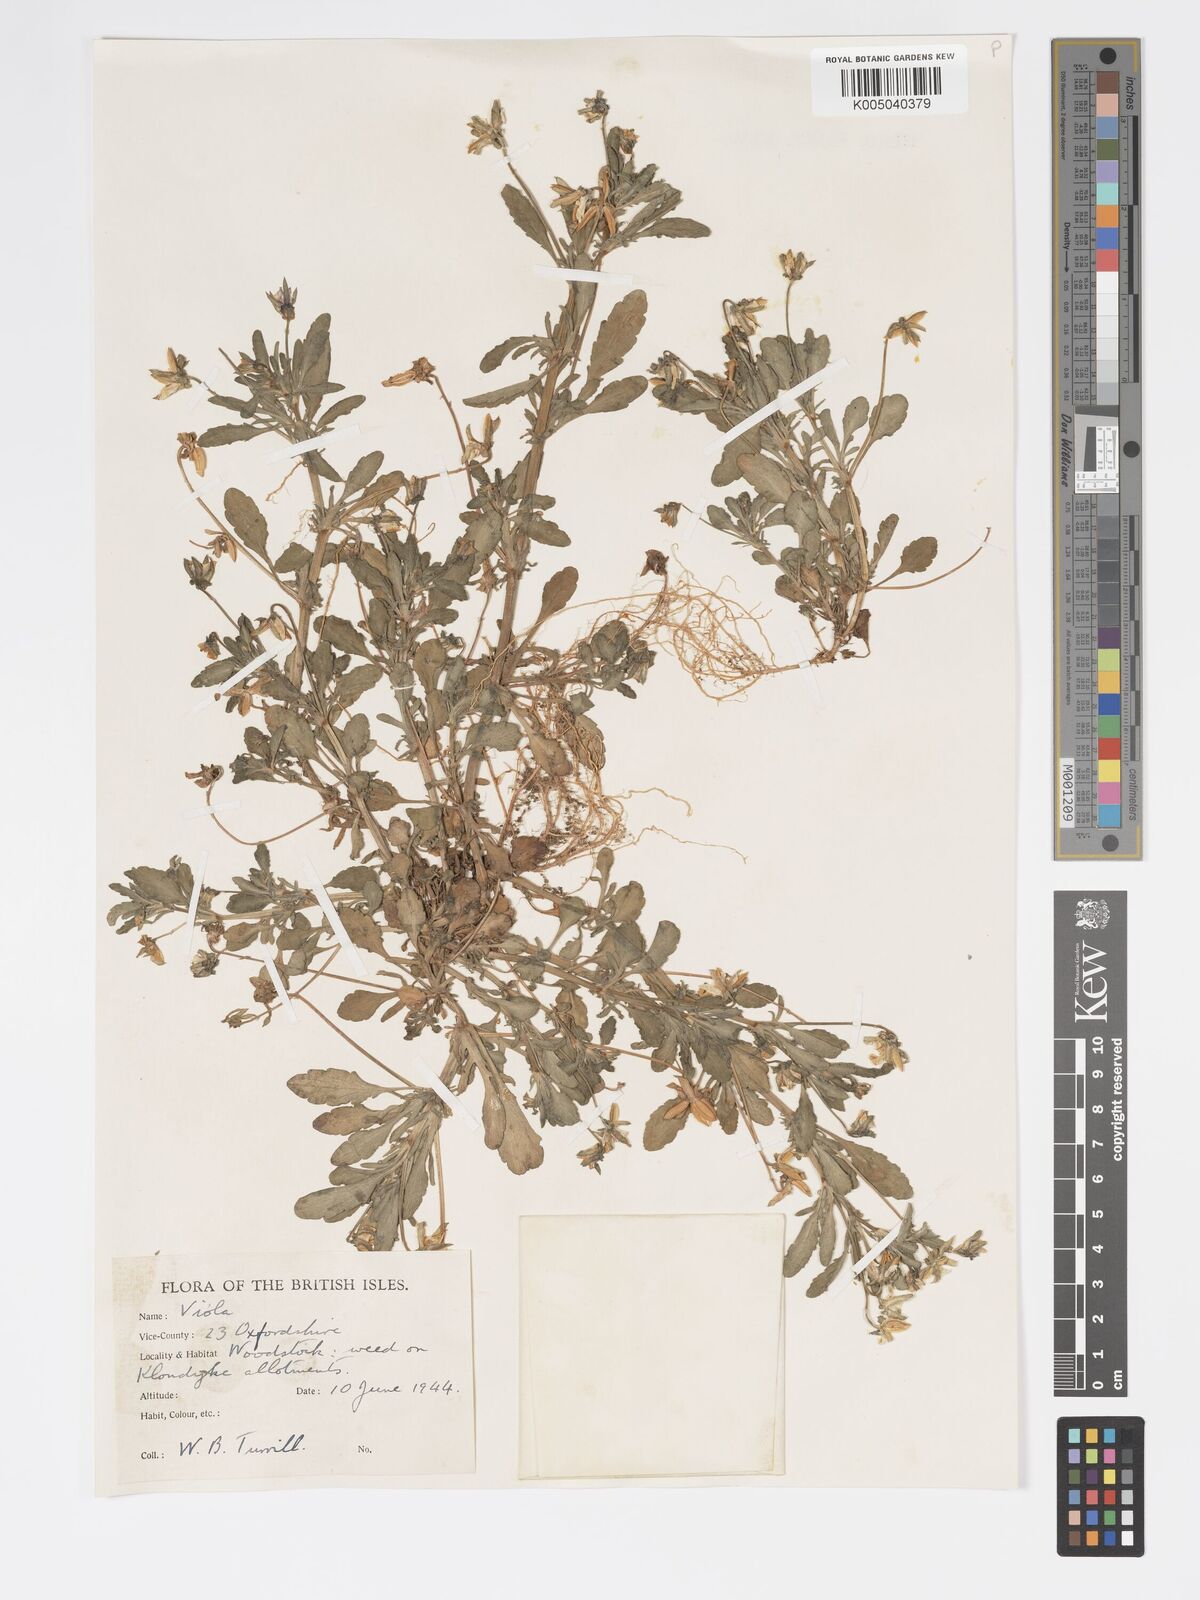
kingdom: Plantae
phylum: Tracheophyta
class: Magnoliopsida
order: Malpighiales
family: Violaceae
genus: Viola
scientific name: Viola arvensis
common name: Field pansy
